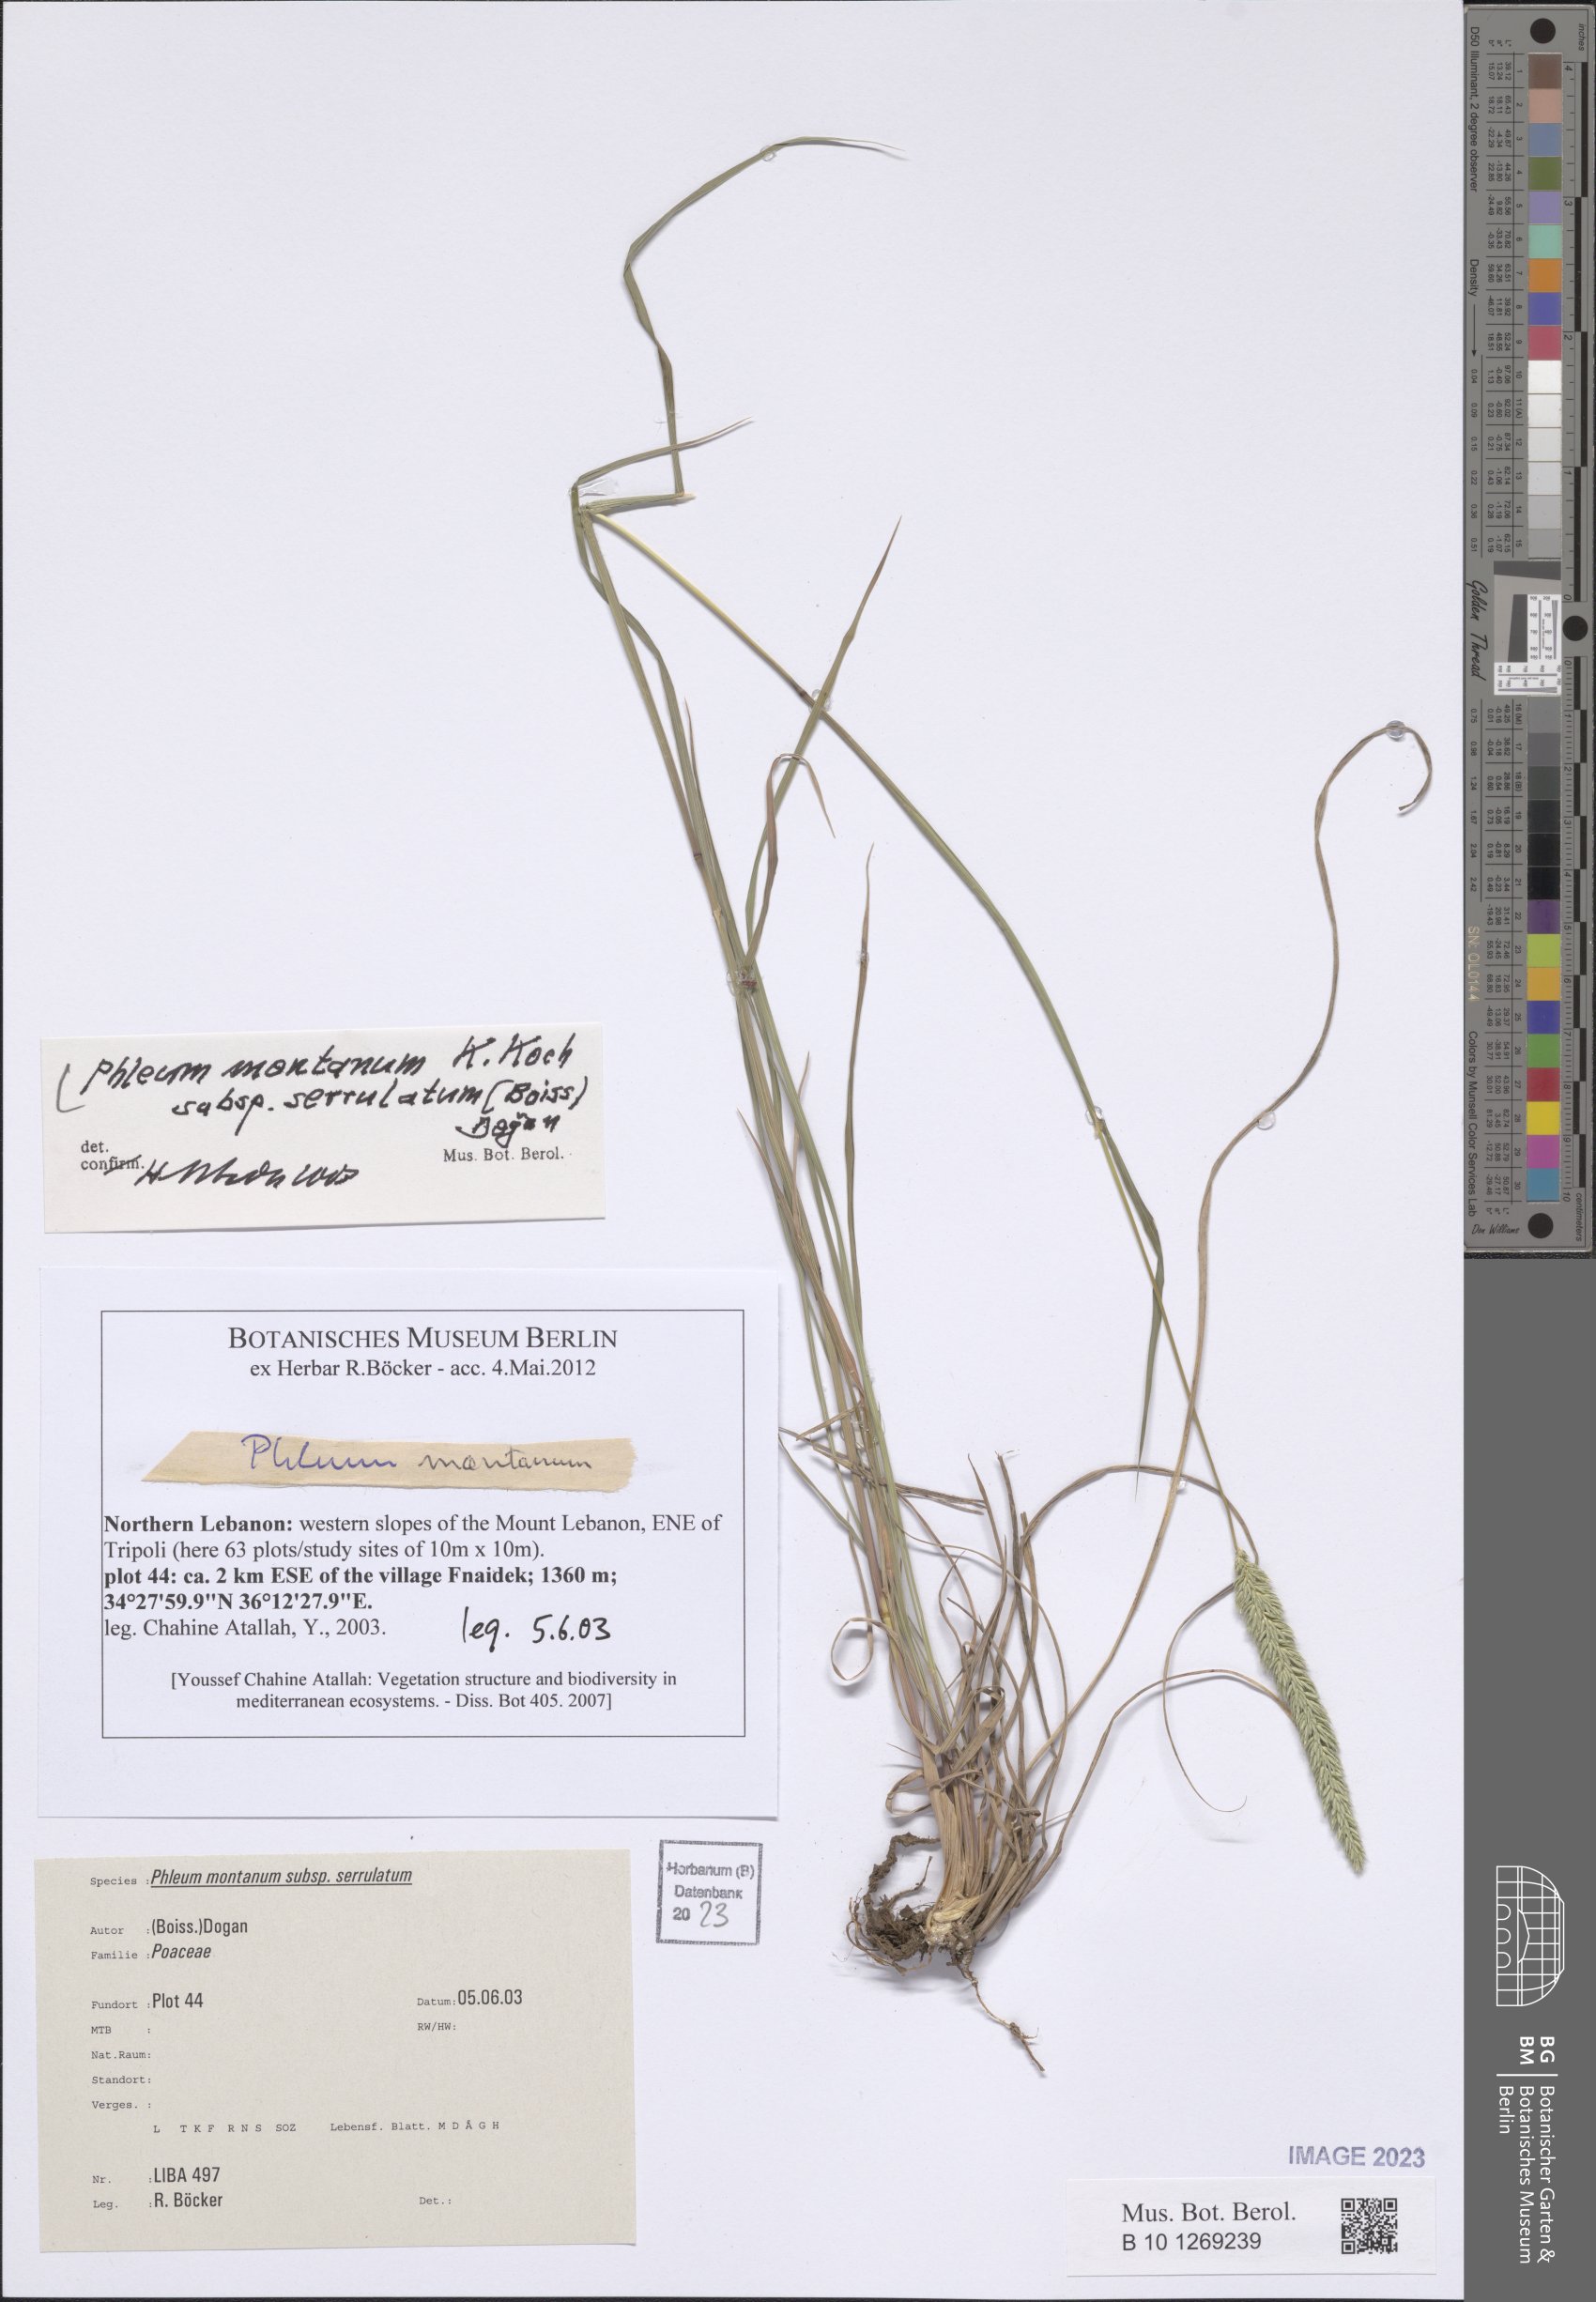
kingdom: Plantae
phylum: Tracheophyta
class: Liliopsida
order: Poales
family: Poaceae
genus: Phleum
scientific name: Phleum montanum
